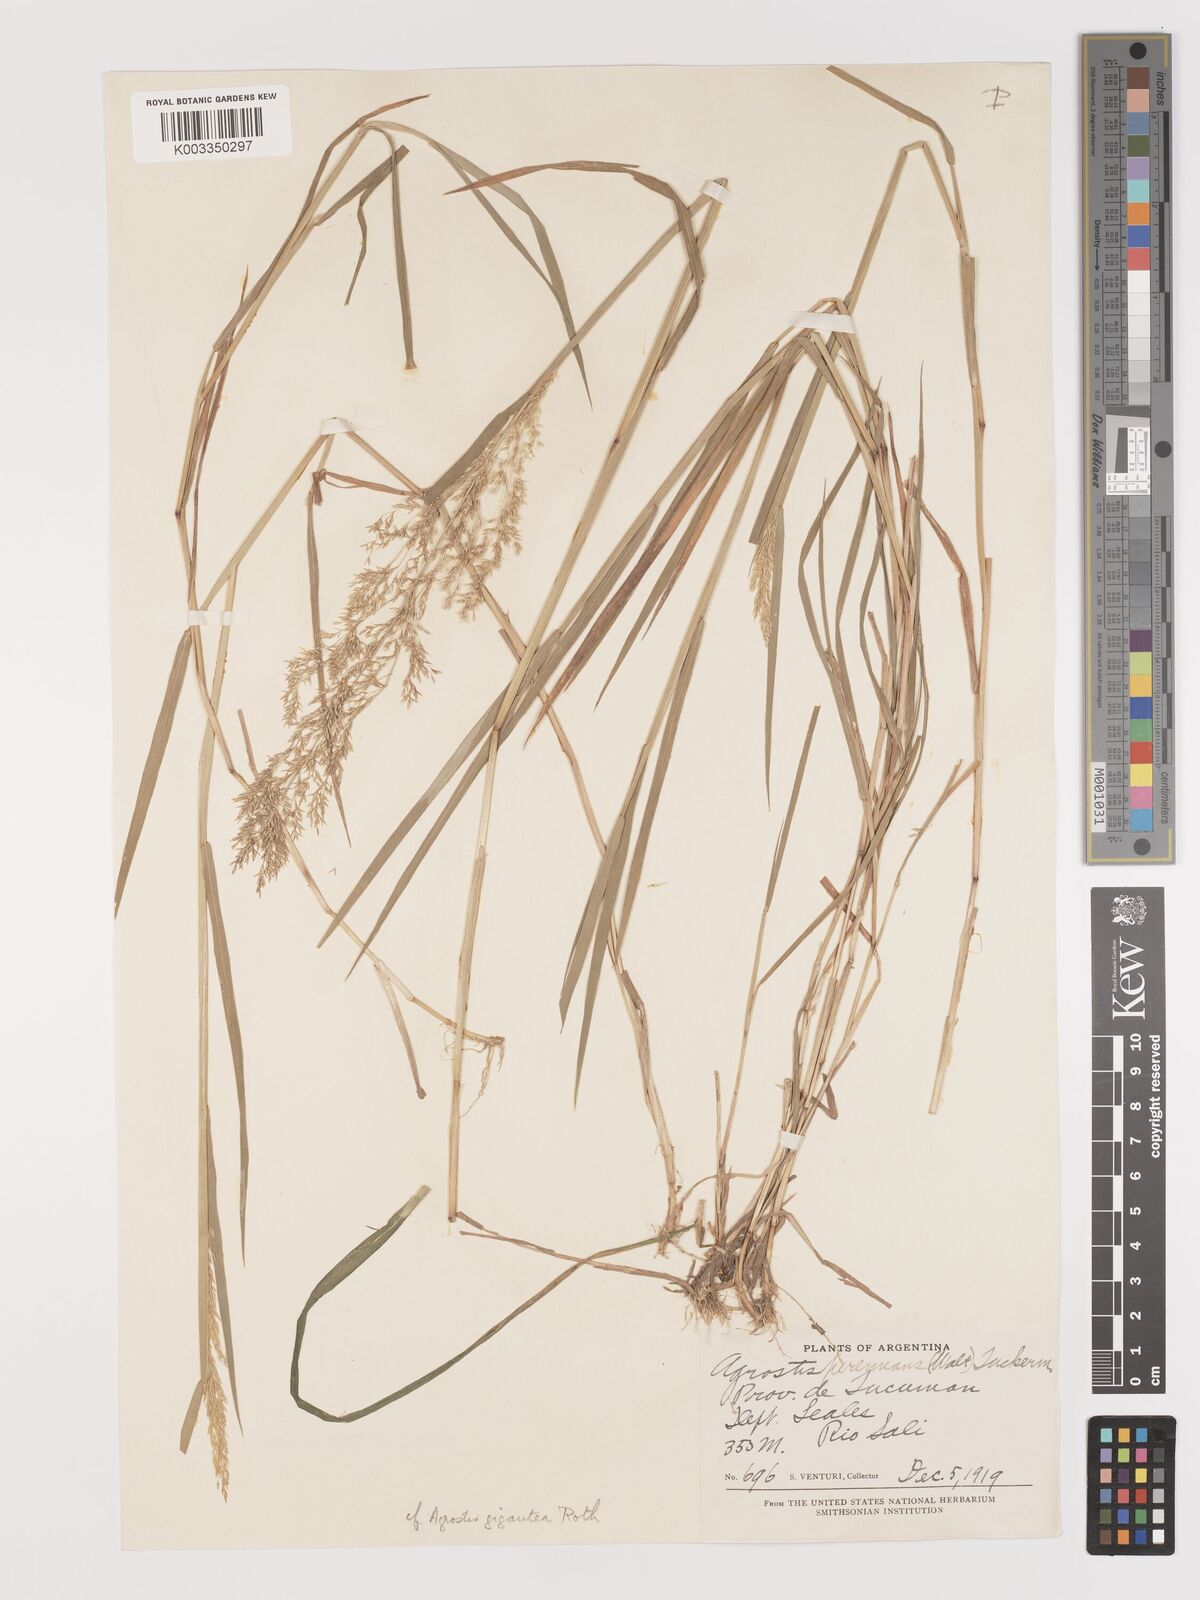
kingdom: Plantae
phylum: Tracheophyta
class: Liliopsida
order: Poales
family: Poaceae
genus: Agrostis
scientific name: Agrostis perennans
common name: Autumn bent
